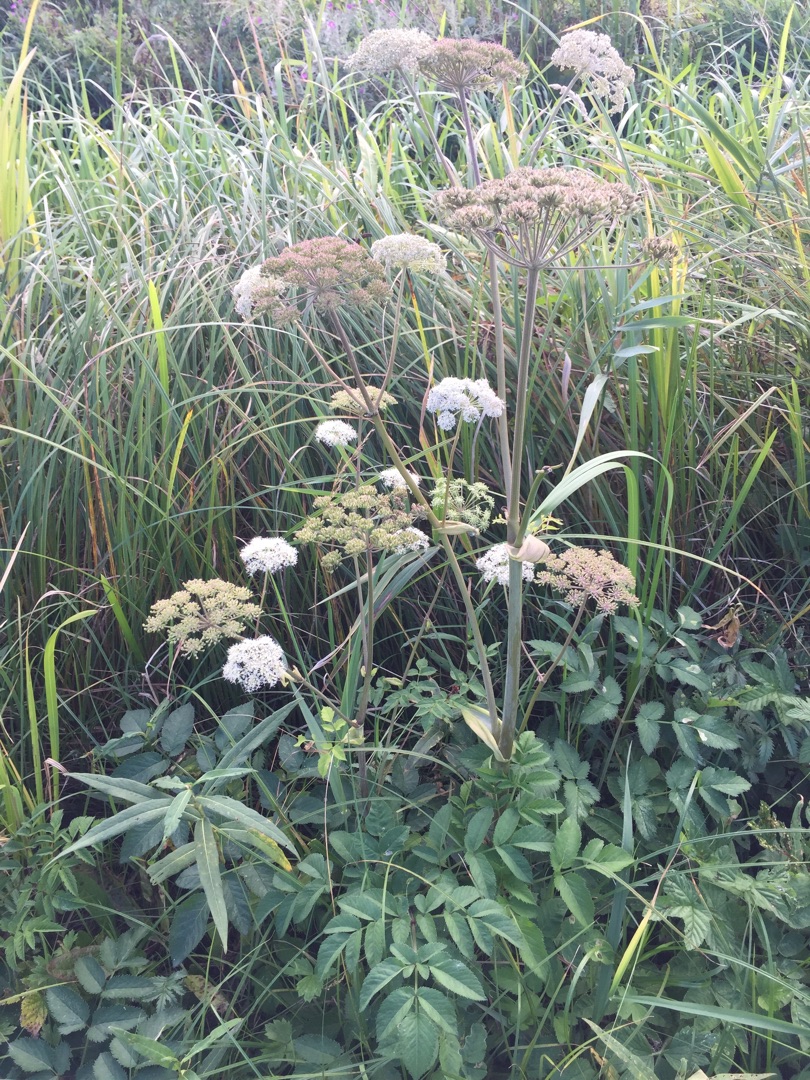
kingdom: Plantae
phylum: Tracheophyta
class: Magnoliopsida
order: Apiales
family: Apiaceae
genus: Angelica
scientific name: Angelica sylvestris
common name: Angelik
